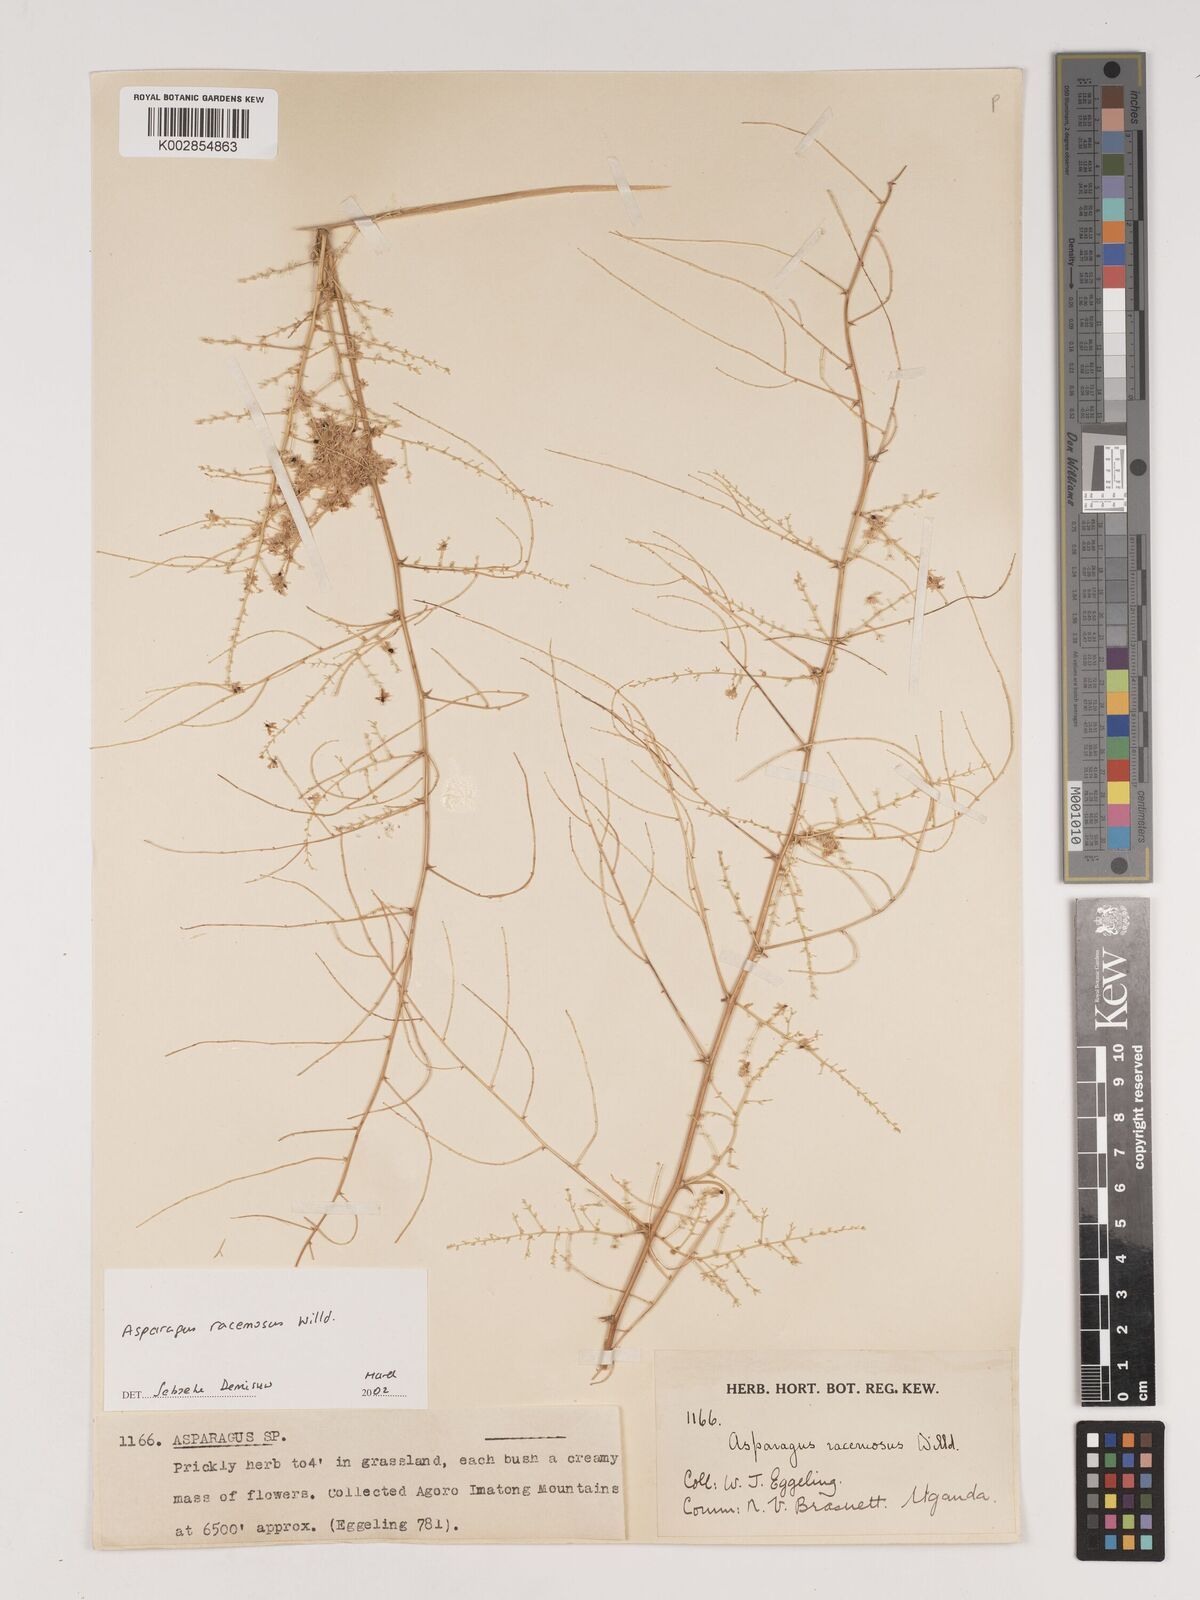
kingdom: Plantae
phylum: Tracheophyta
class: Liliopsida
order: Asparagales
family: Asparagaceae
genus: Asparagus
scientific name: Asparagus racemosus
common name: Asparagus-fern
